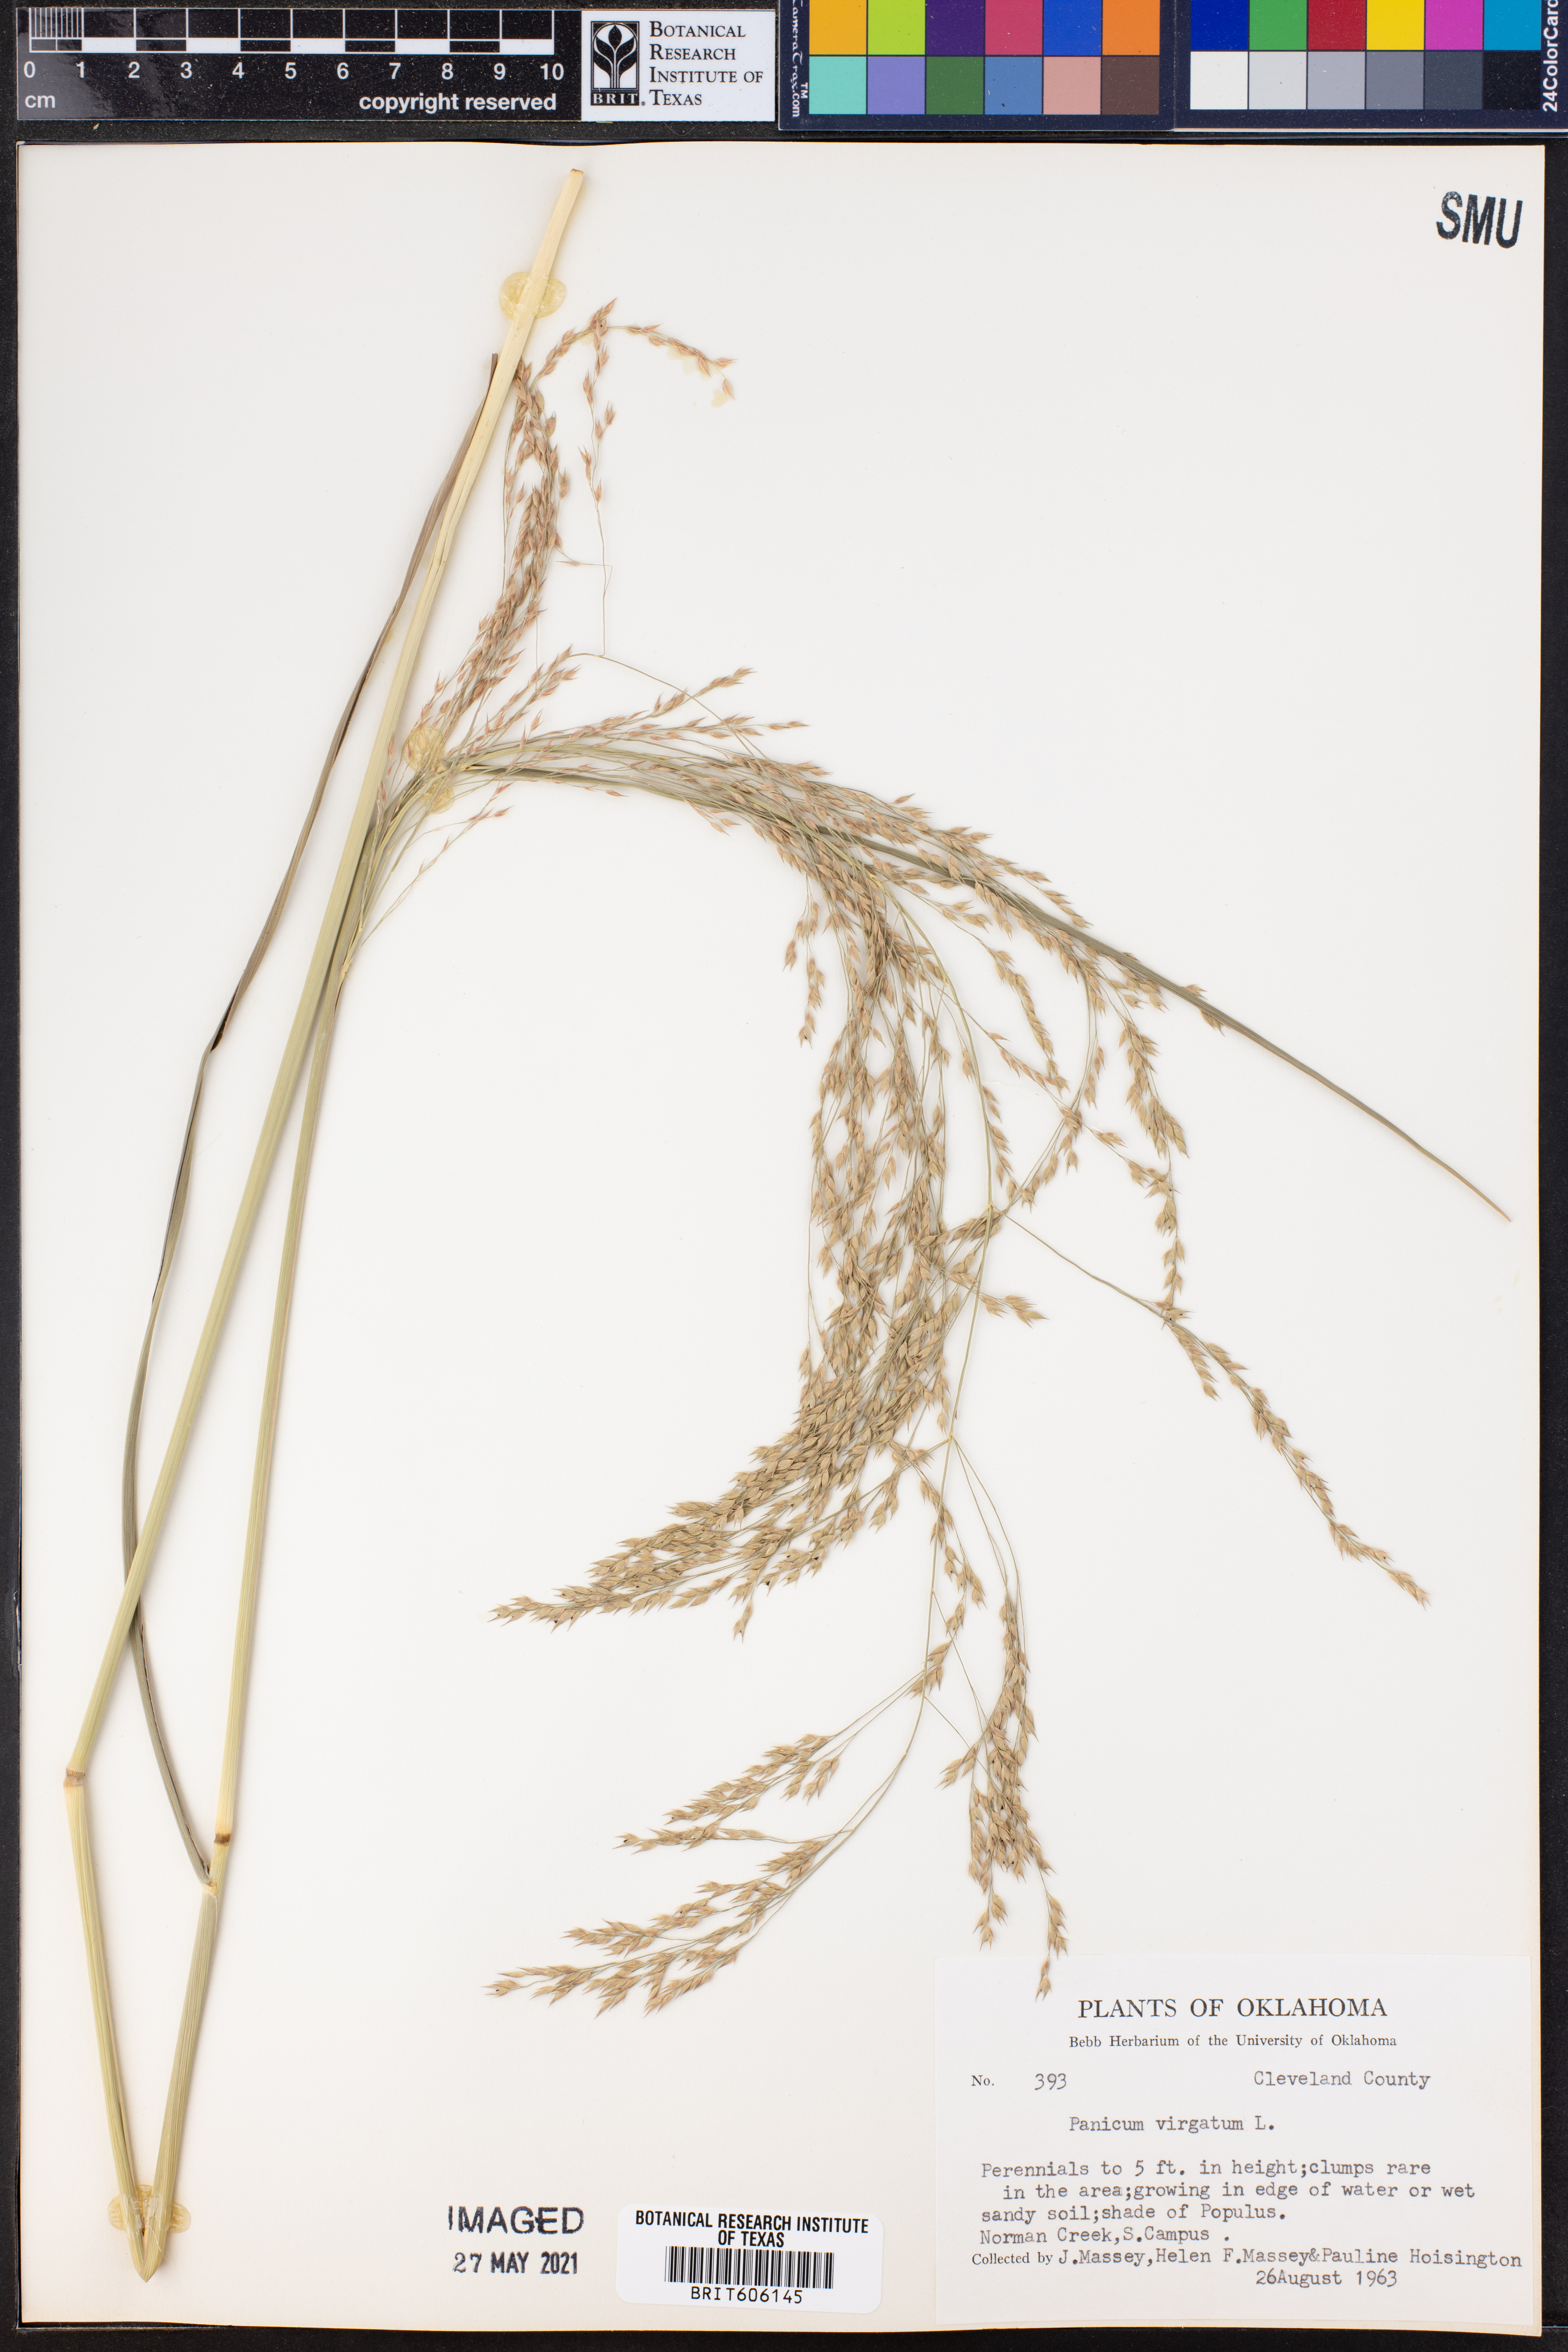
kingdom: Plantae
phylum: Tracheophyta
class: Liliopsida
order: Poales
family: Poaceae
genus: Panicum
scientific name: Panicum virgatum
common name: Switchgrass
